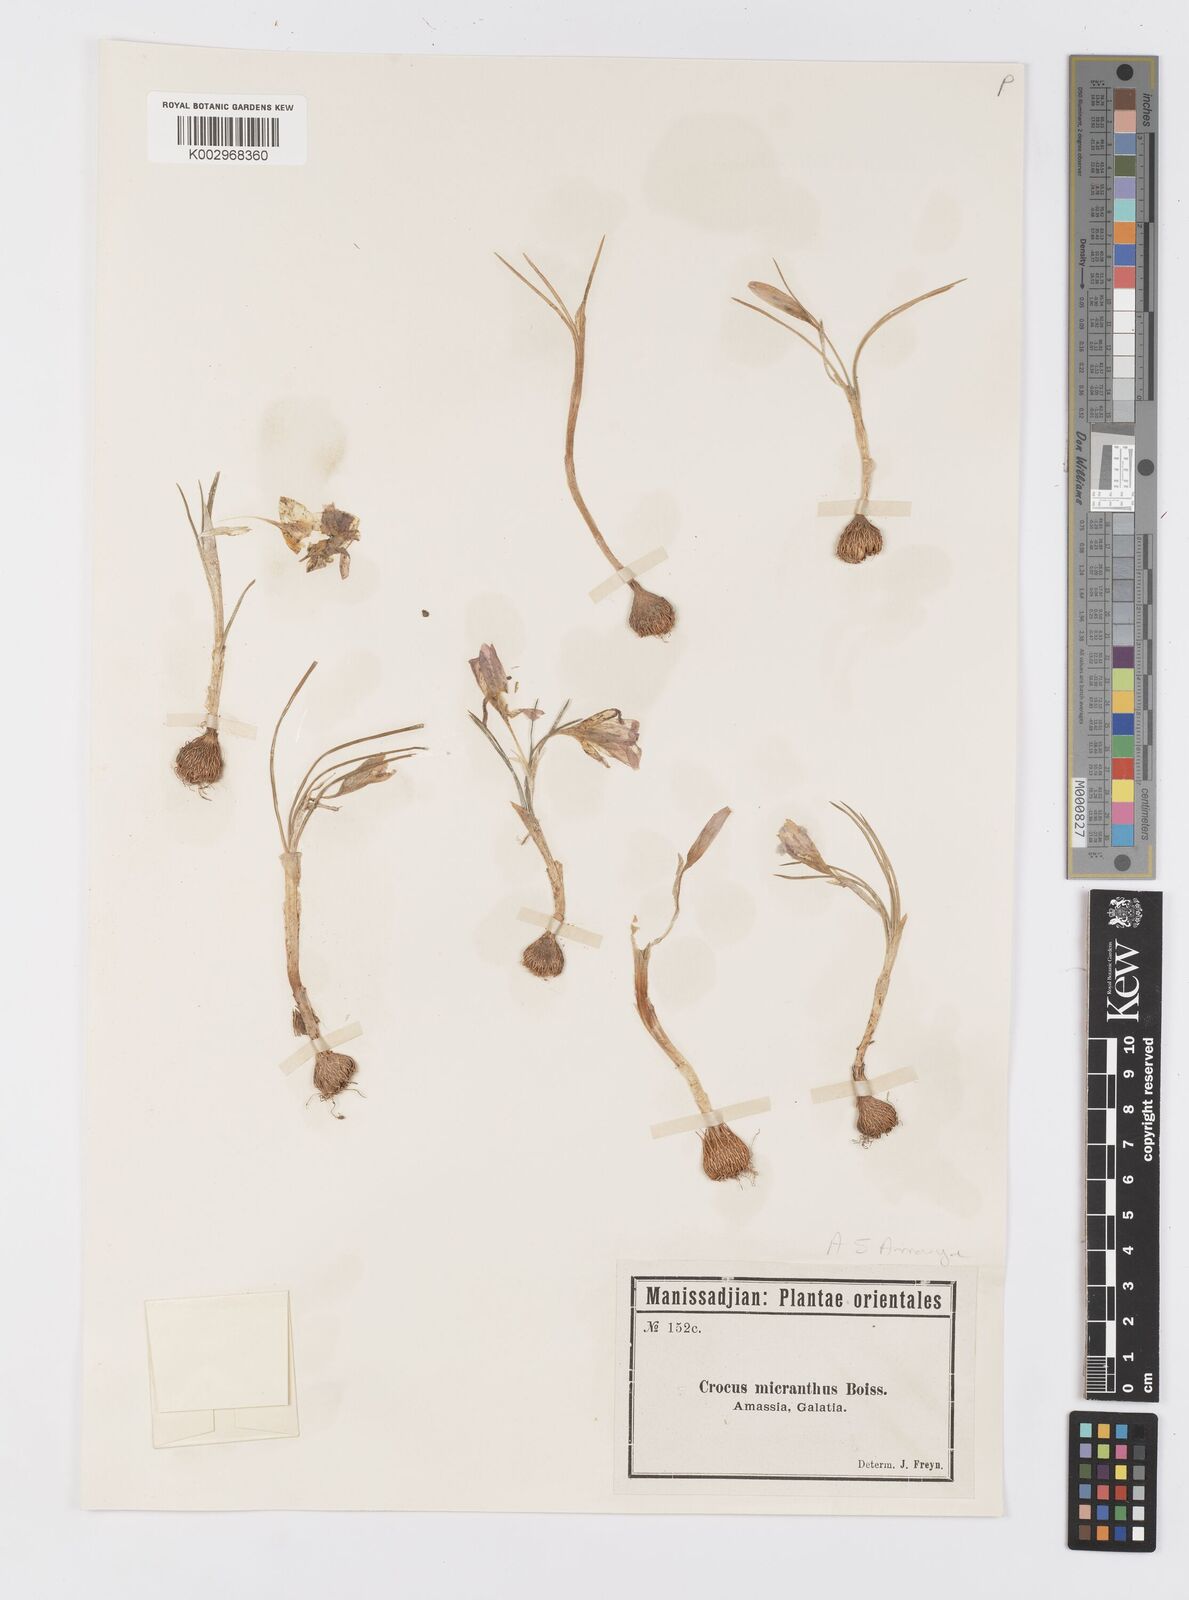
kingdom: Plantae
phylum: Tracheophyta
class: Liliopsida
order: Asparagales
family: Iridaceae
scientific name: Iridaceae
